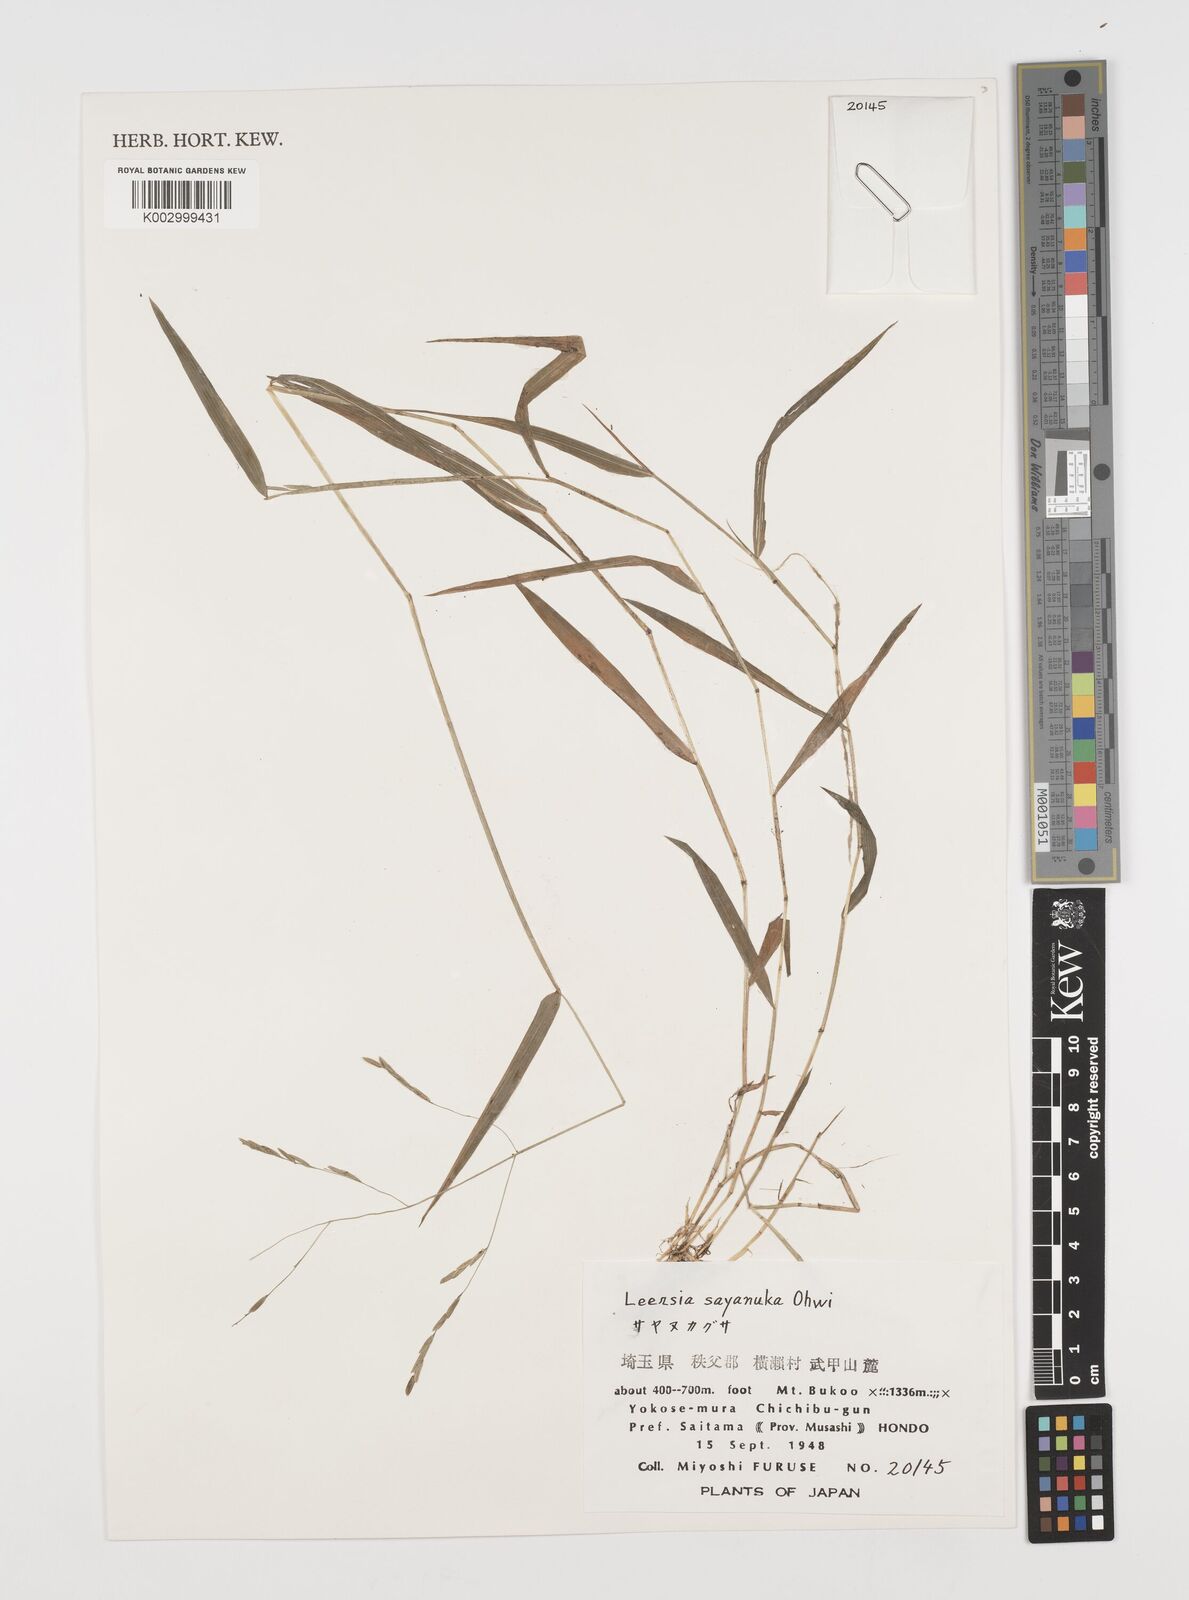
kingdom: Plantae
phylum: Tracheophyta
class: Liliopsida
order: Poales
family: Poaceae
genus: Leersia
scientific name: Leersia sayanuka
